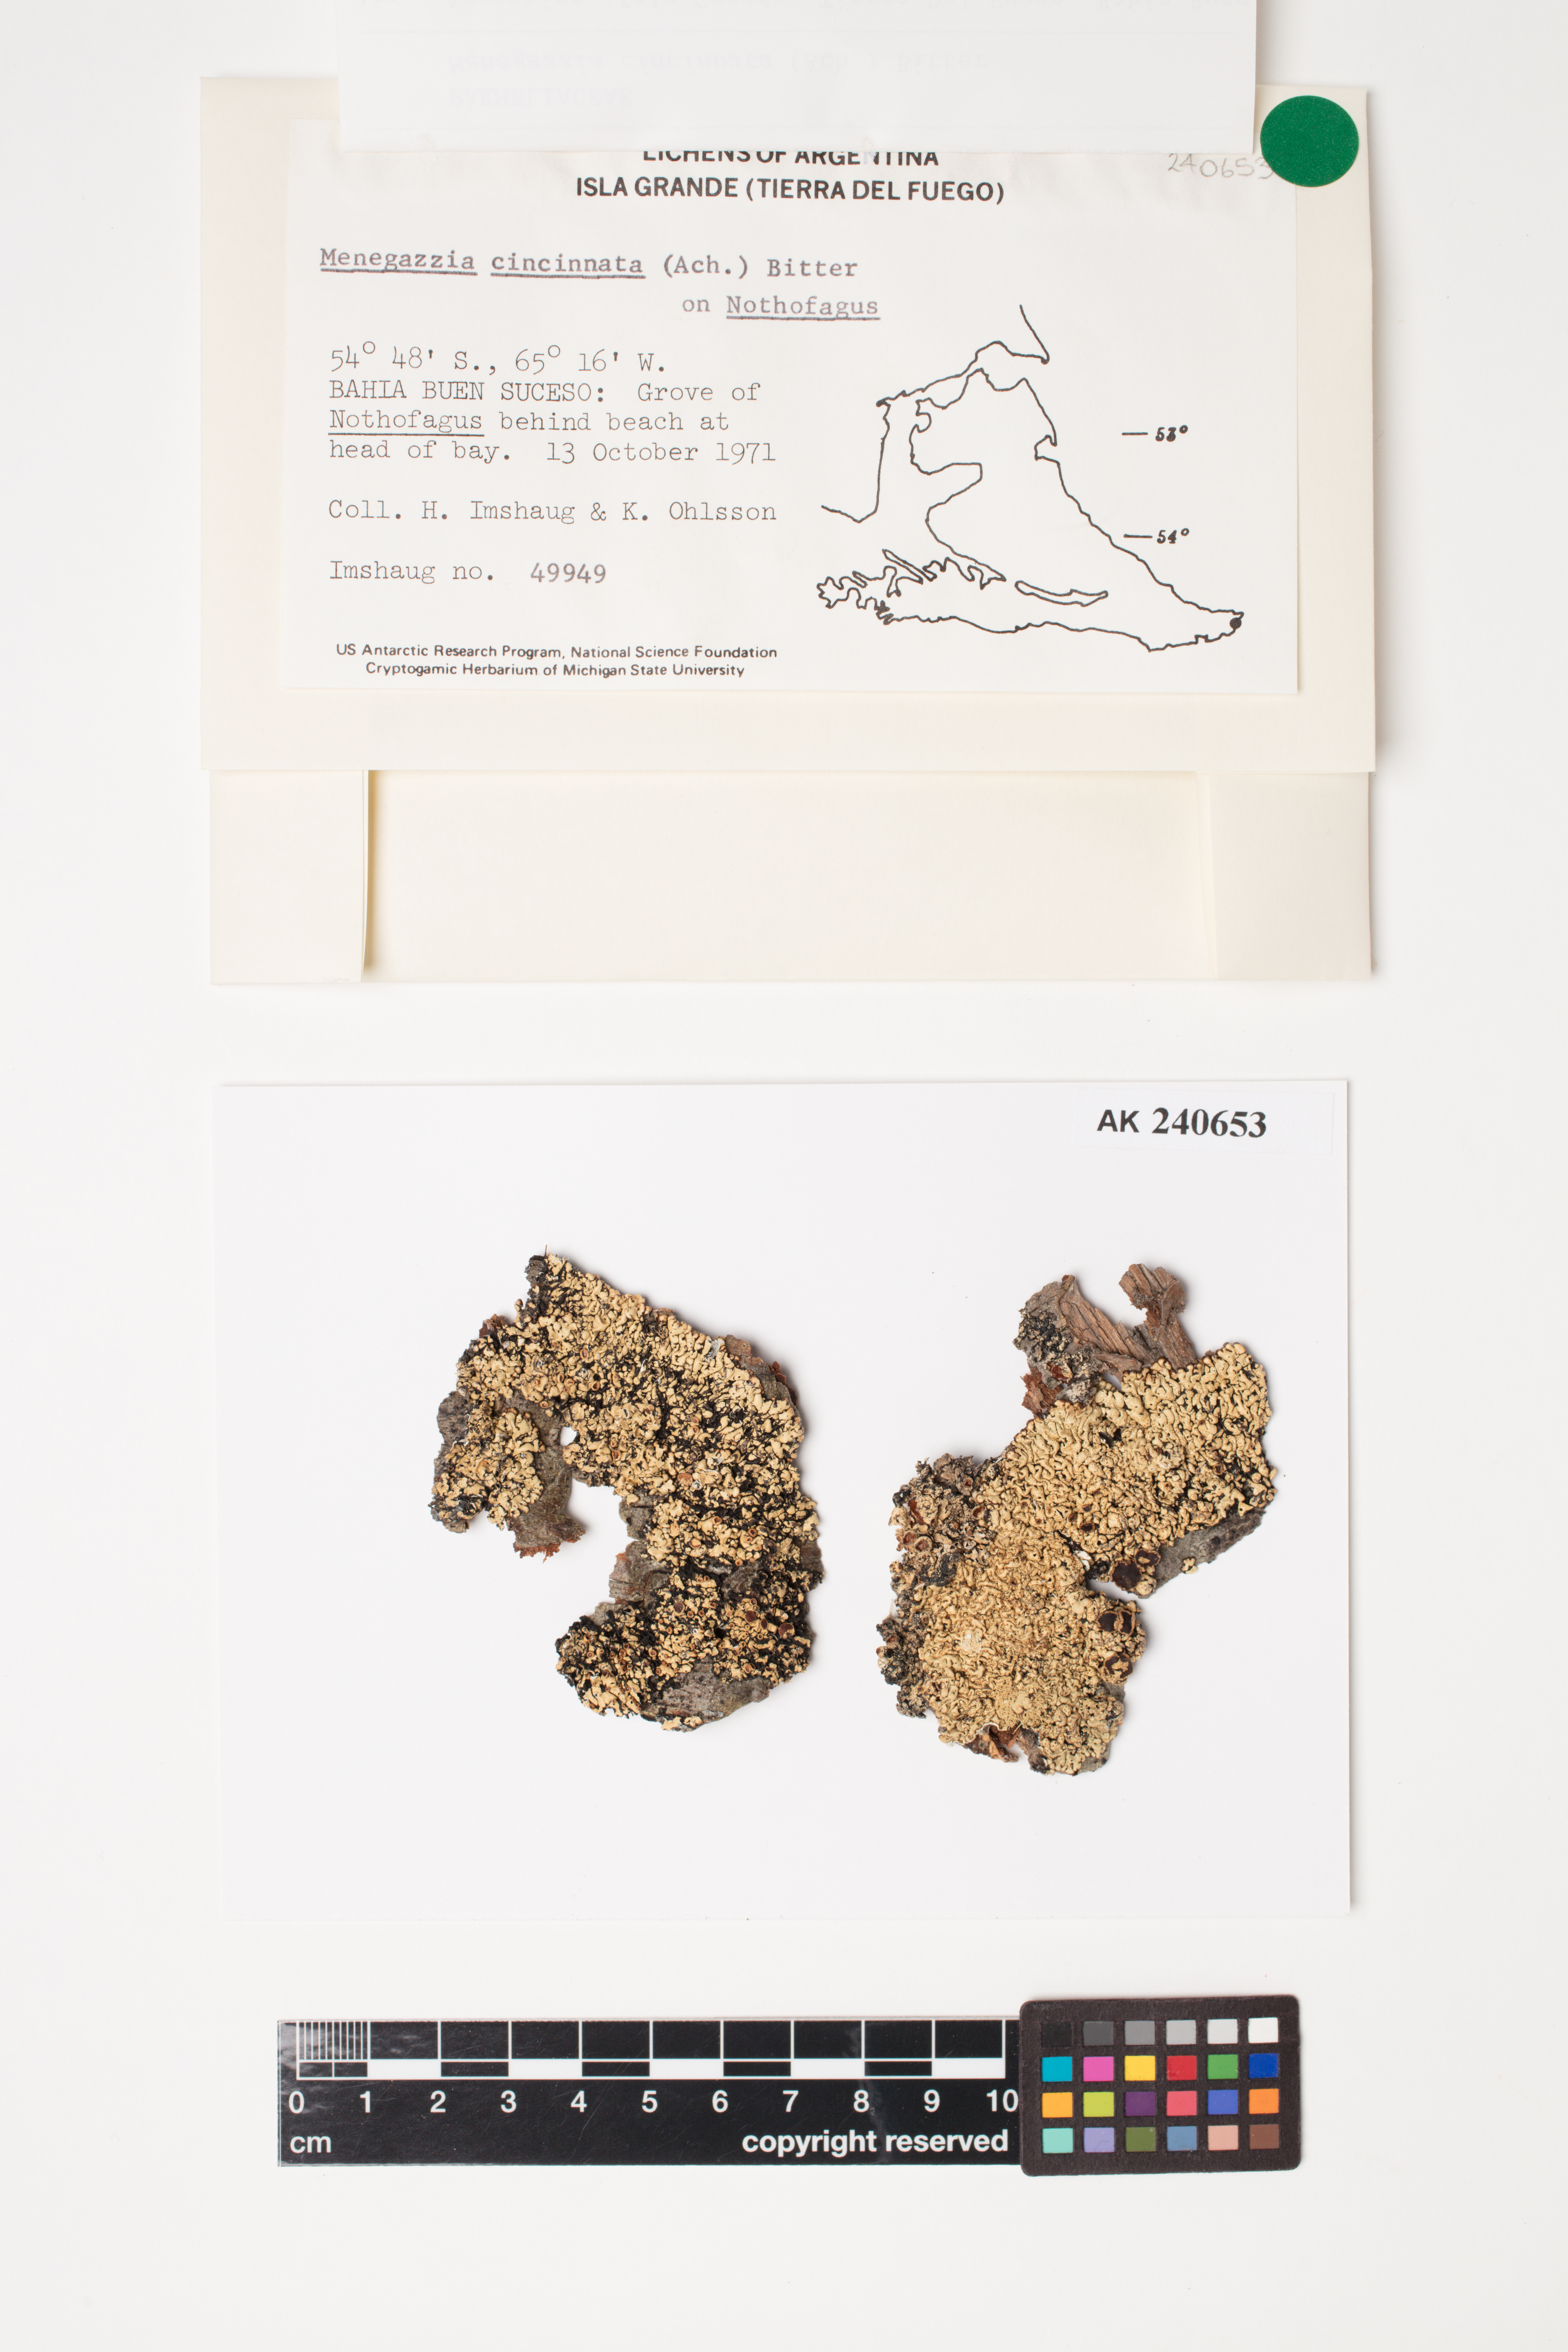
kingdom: Fungi
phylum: Ascomycota
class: Lecanoromycetes
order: Lecanorales
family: Parmeliaceae
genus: Menegazzia
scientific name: Menegazzia cincinnata
